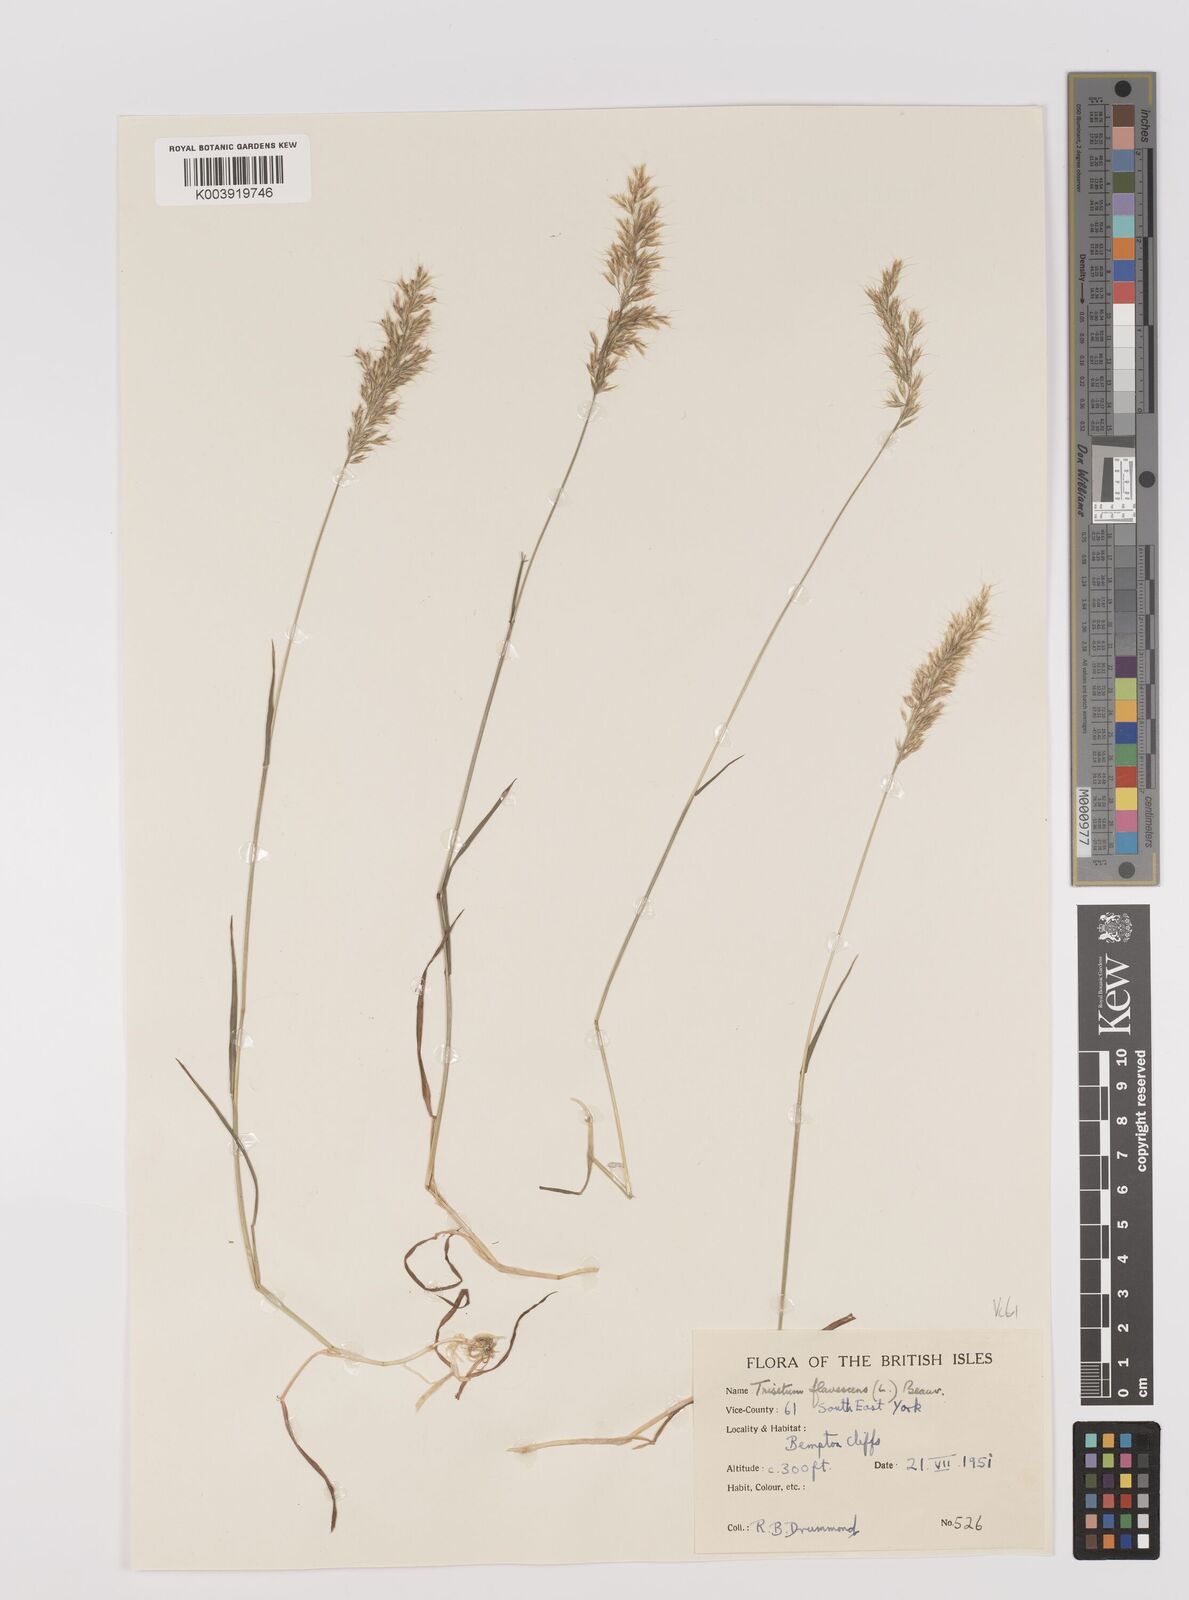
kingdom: Plantae
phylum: Tracheophyta
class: Liliopsida
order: Poales
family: Poaceae
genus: Trisetum
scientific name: Trisetum flavescens
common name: Yellow oat-grass
